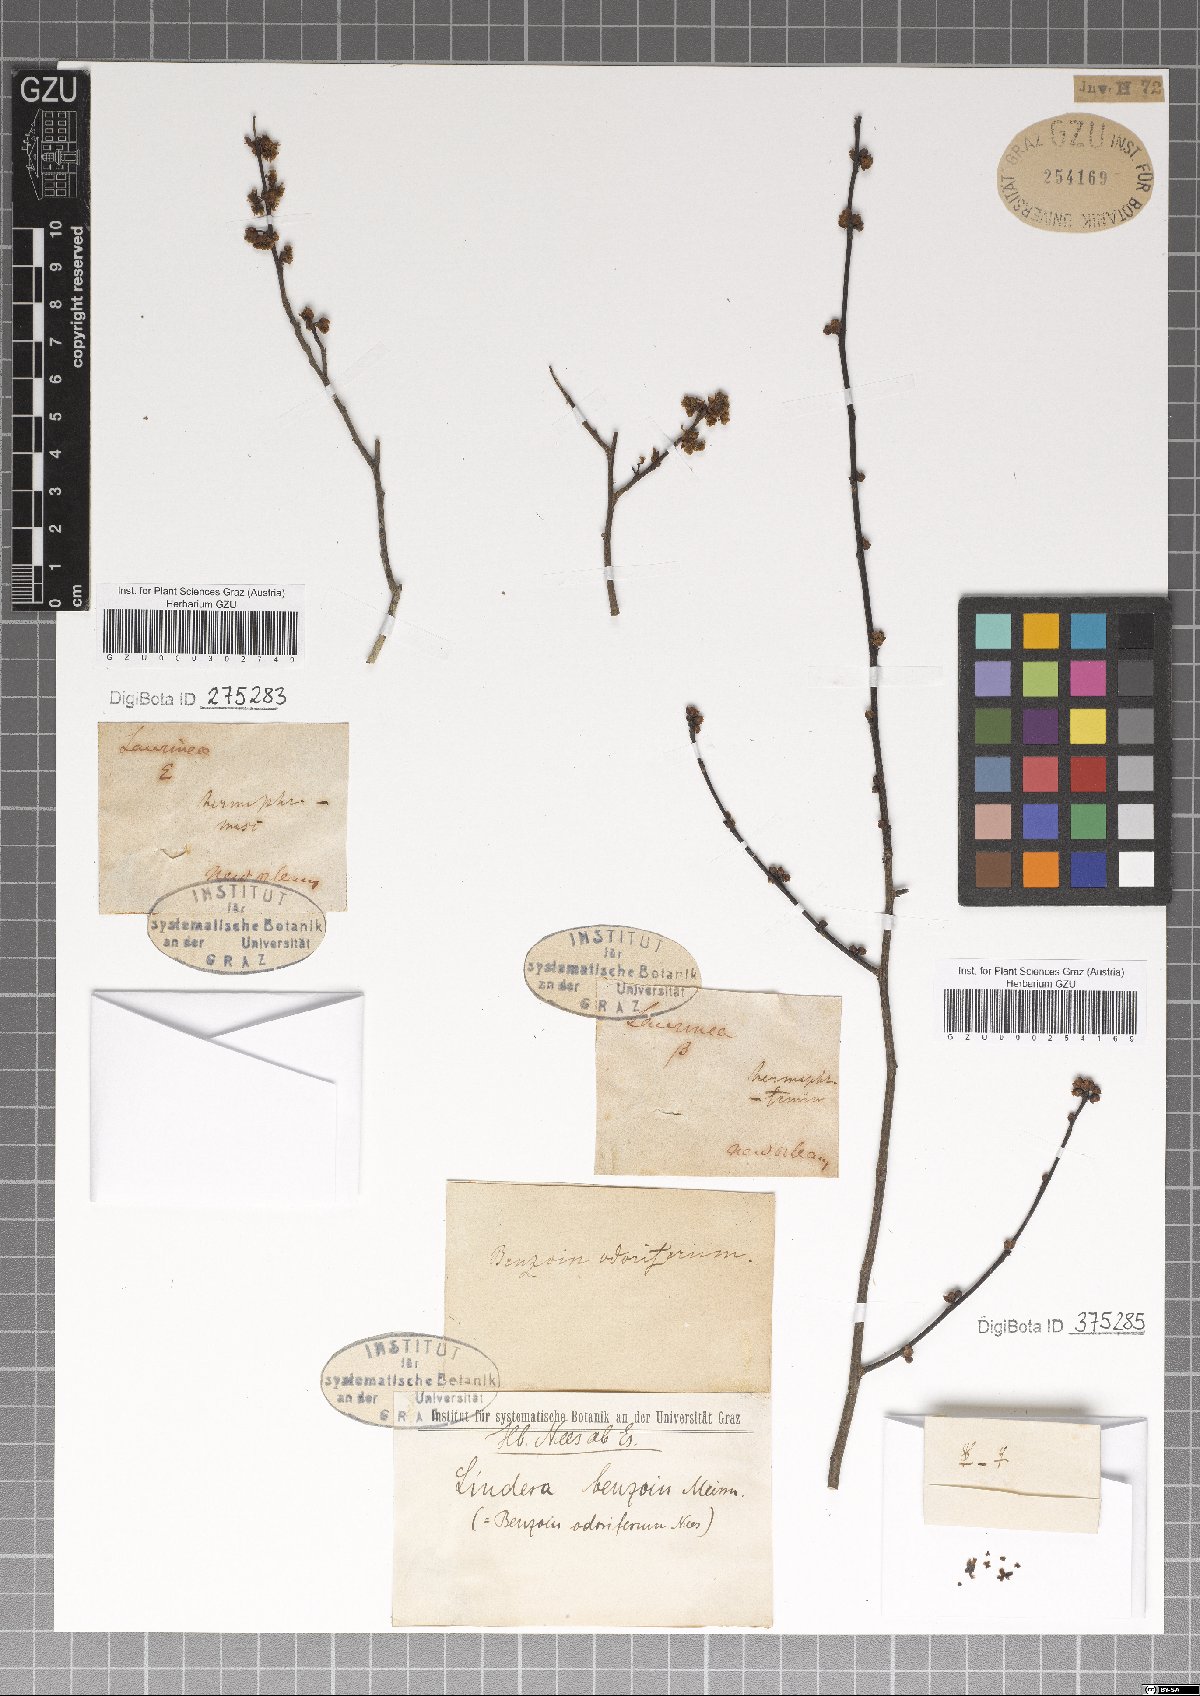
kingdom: Plantae
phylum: Tracheophyta
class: Magnoliopsida
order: Laurales
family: Lauraceae
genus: Lindera
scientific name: Lindera benzoin
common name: Spicebush
